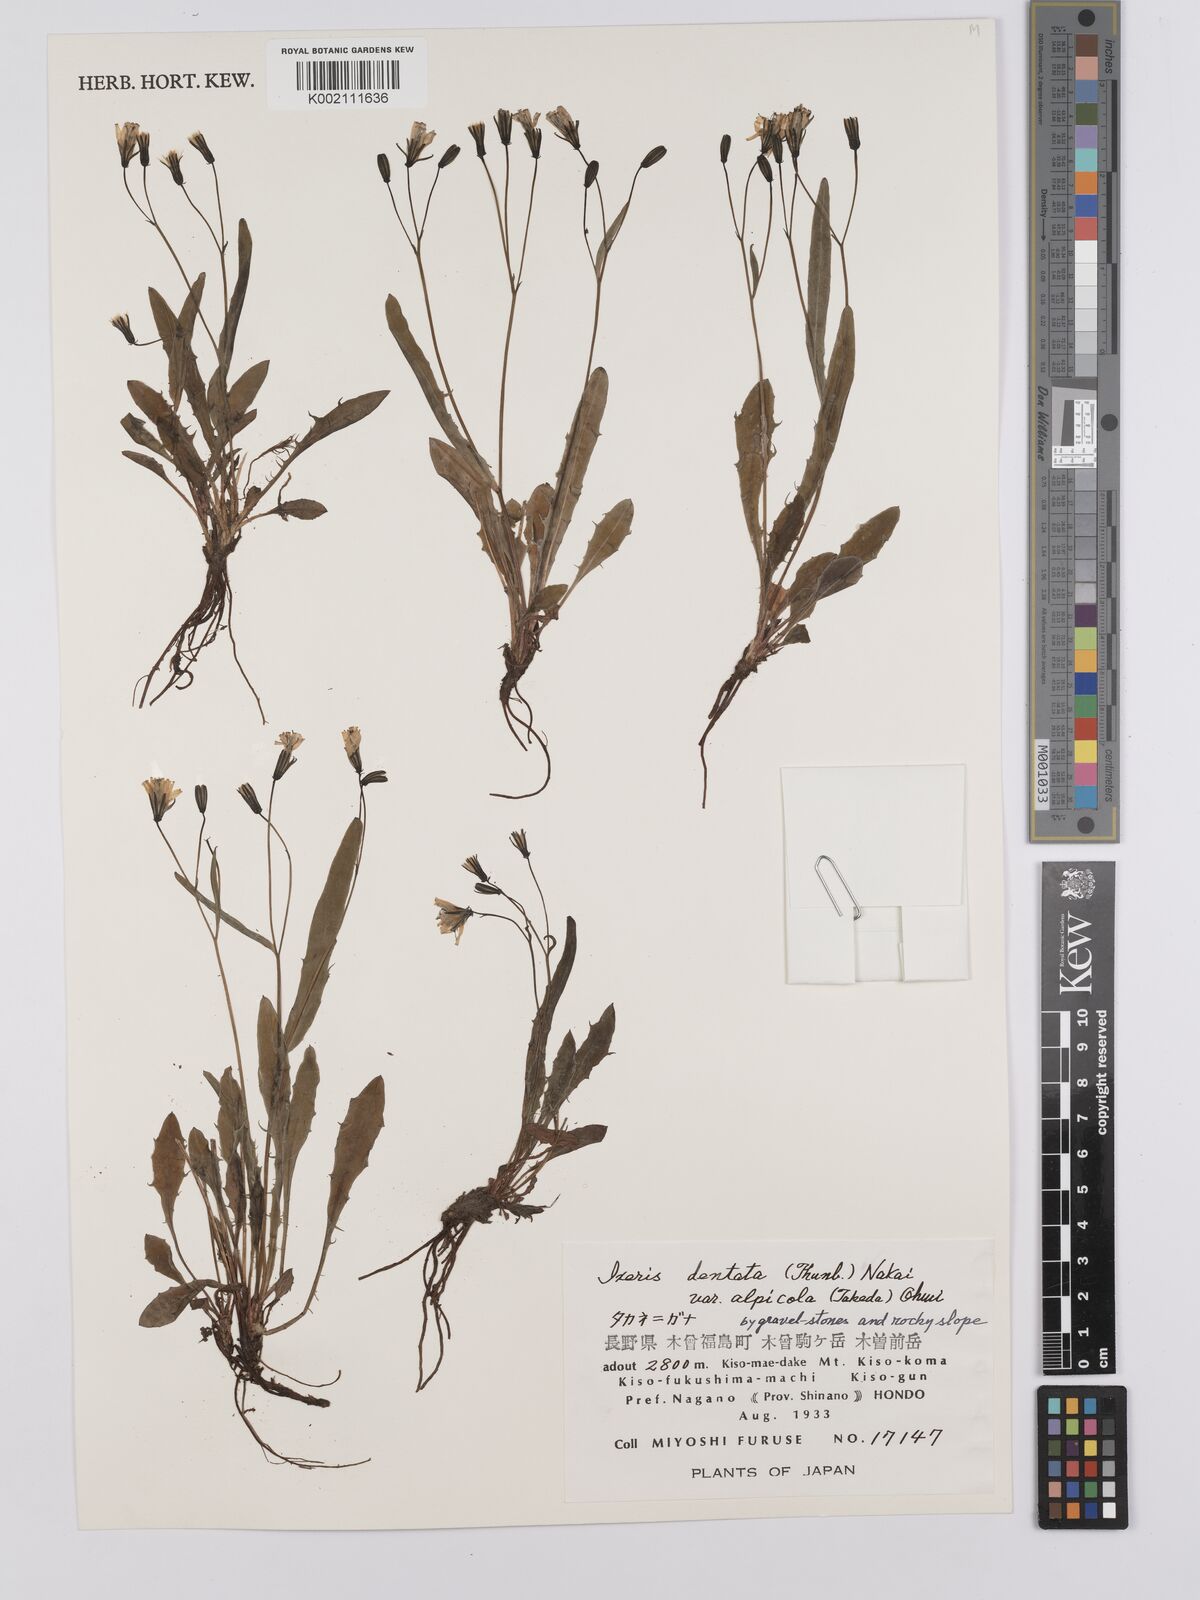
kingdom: Plantae
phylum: Tracheophyta
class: Magnoliopsida
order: Asterales
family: Asteraceae
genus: Ixeridium
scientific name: Ixeridium alpicola
